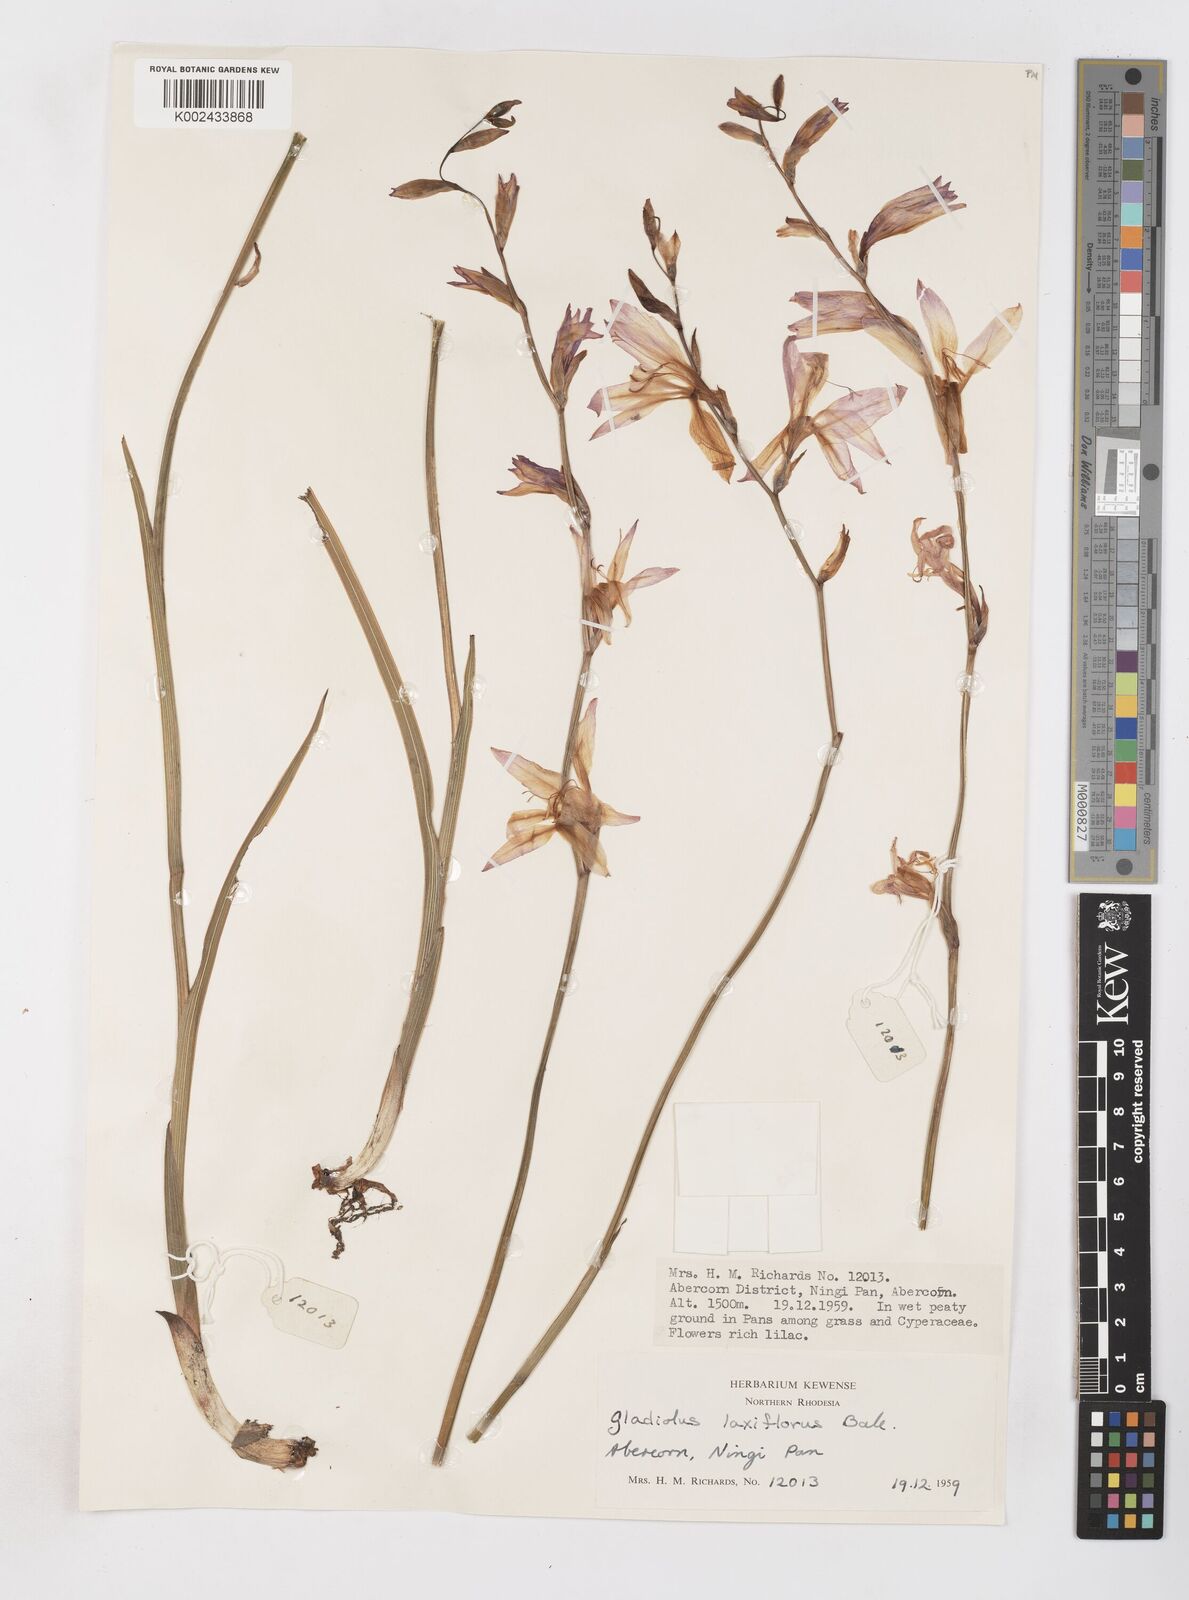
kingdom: Plantae
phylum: Tracheophyta
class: Liliopsida
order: Asparagales
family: Iridaceae
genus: Gladiolus
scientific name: Gladiolus laxiflorus
